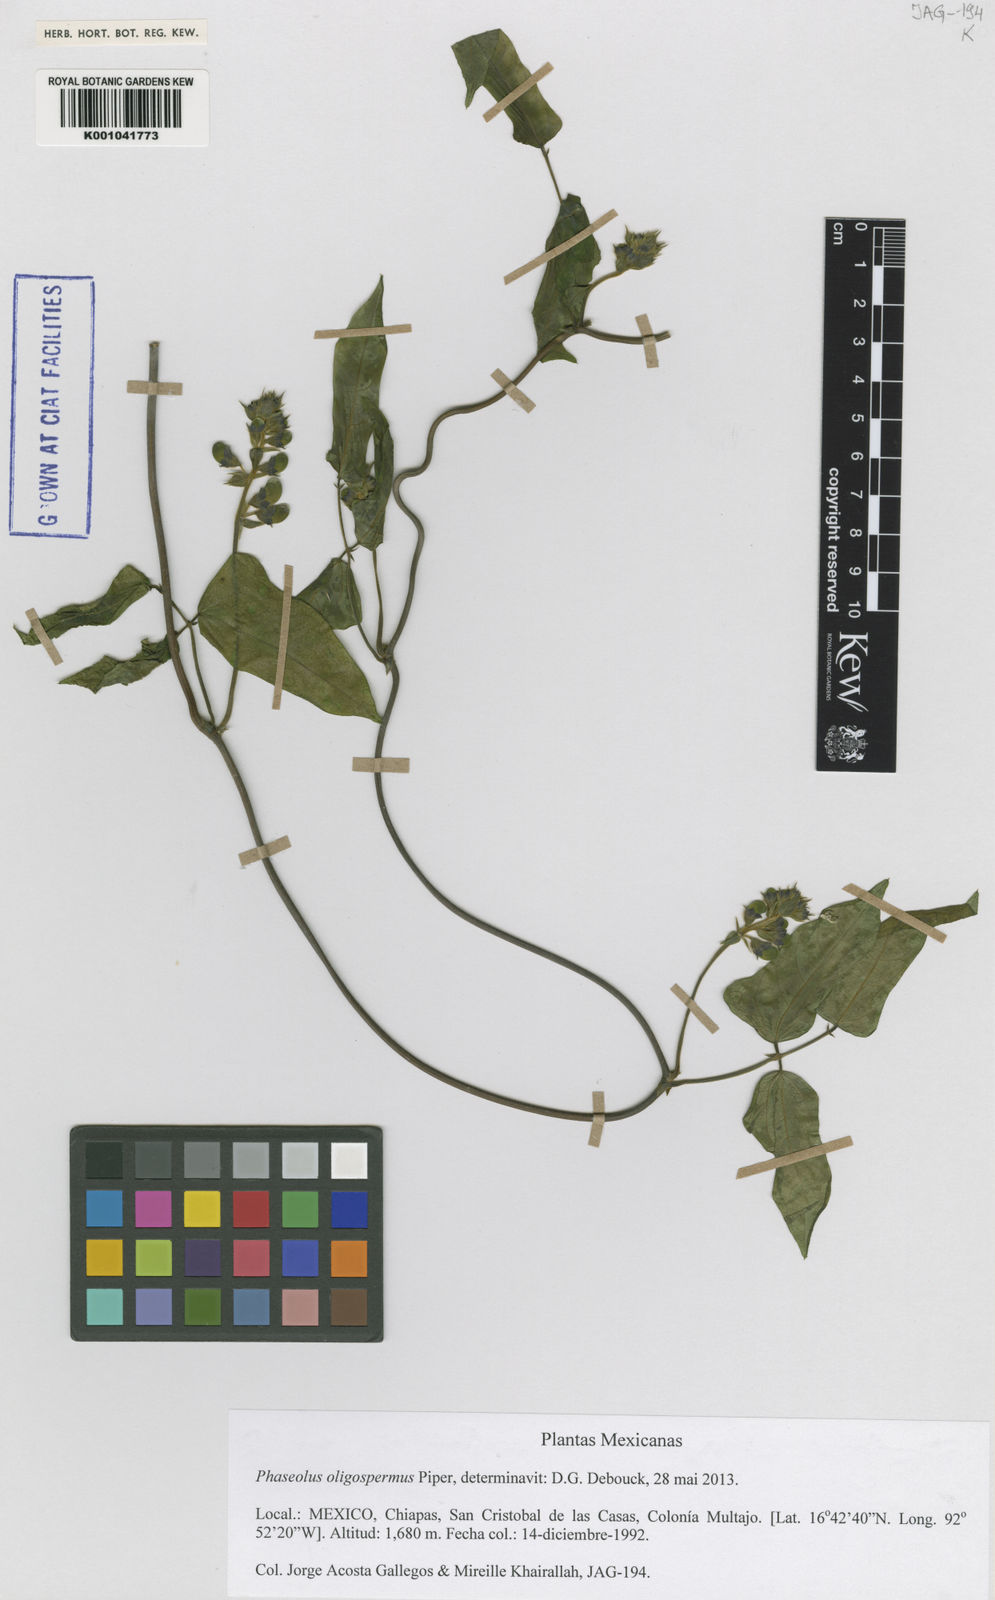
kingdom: Plantae
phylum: Tracheophyta
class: Magnoliopsida
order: Fabales
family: Fabaceae
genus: Phaseolus
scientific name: Phaseolus oligospermus
